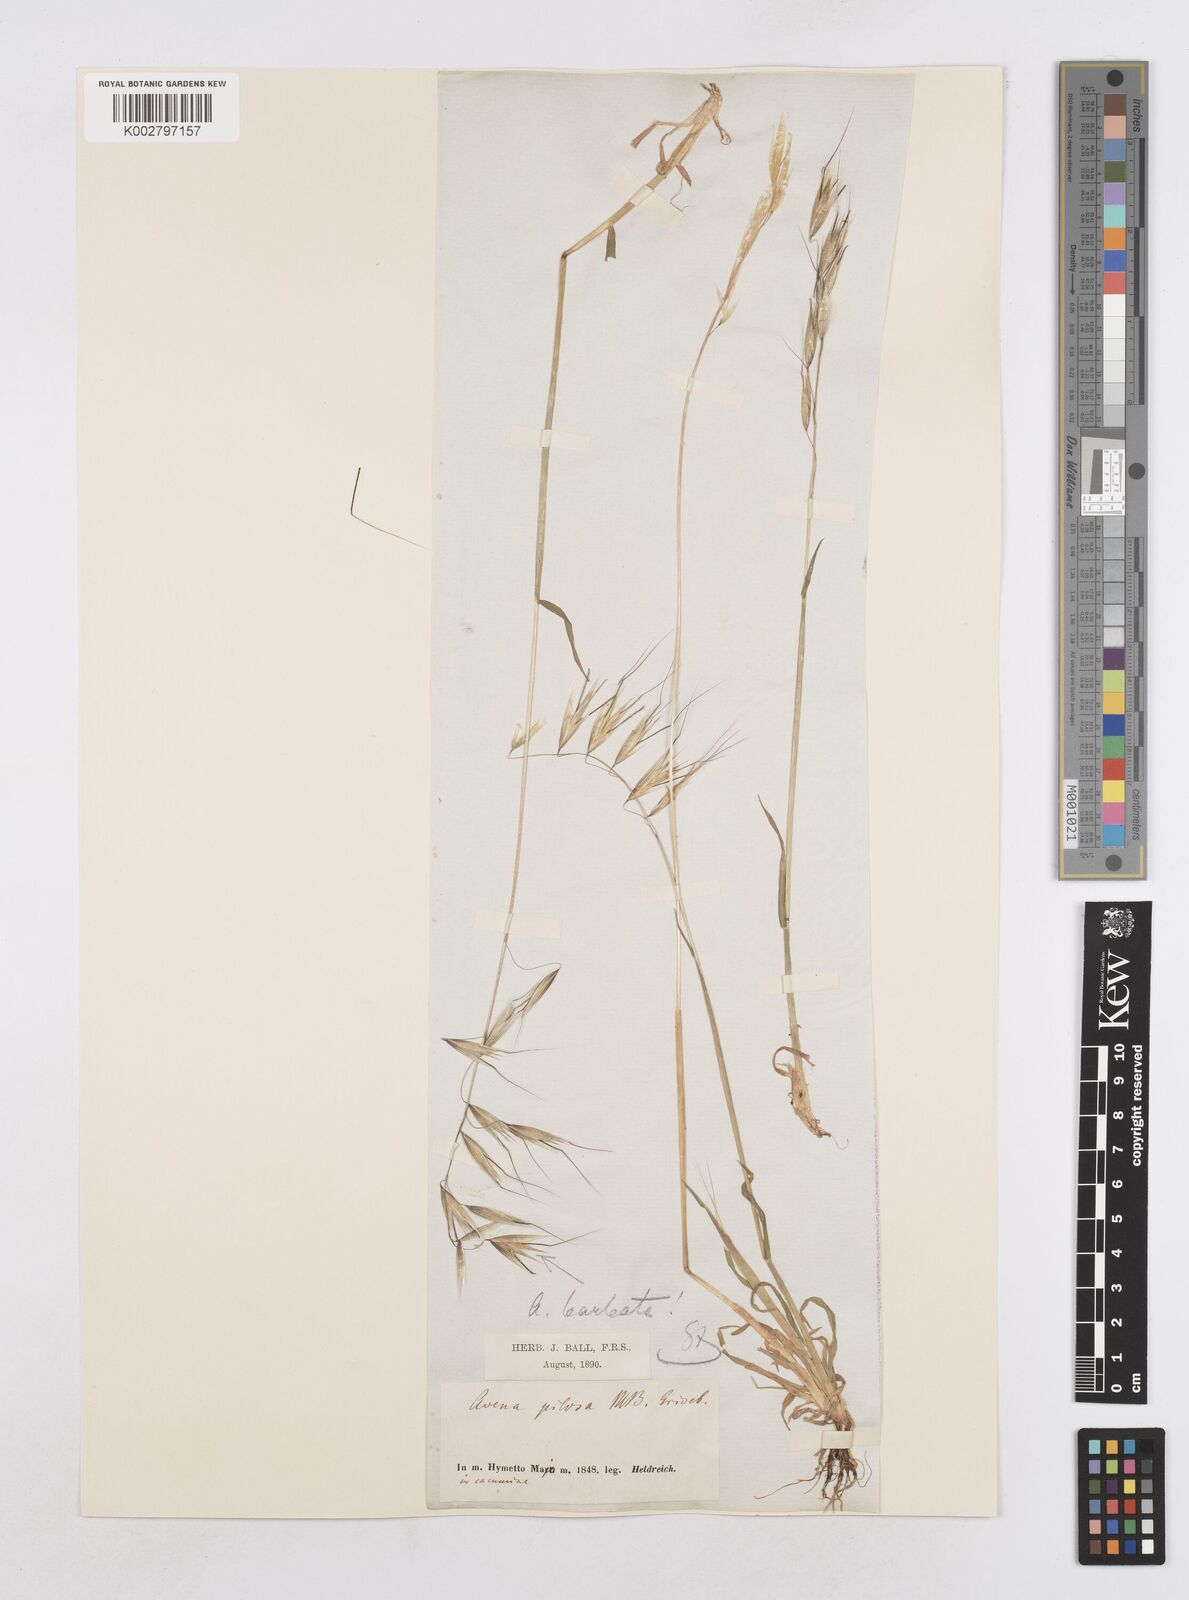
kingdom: Plantae
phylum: Tracheophyta
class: Liliopsida
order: Poales
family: Poaceae
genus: Avena
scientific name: Avena
